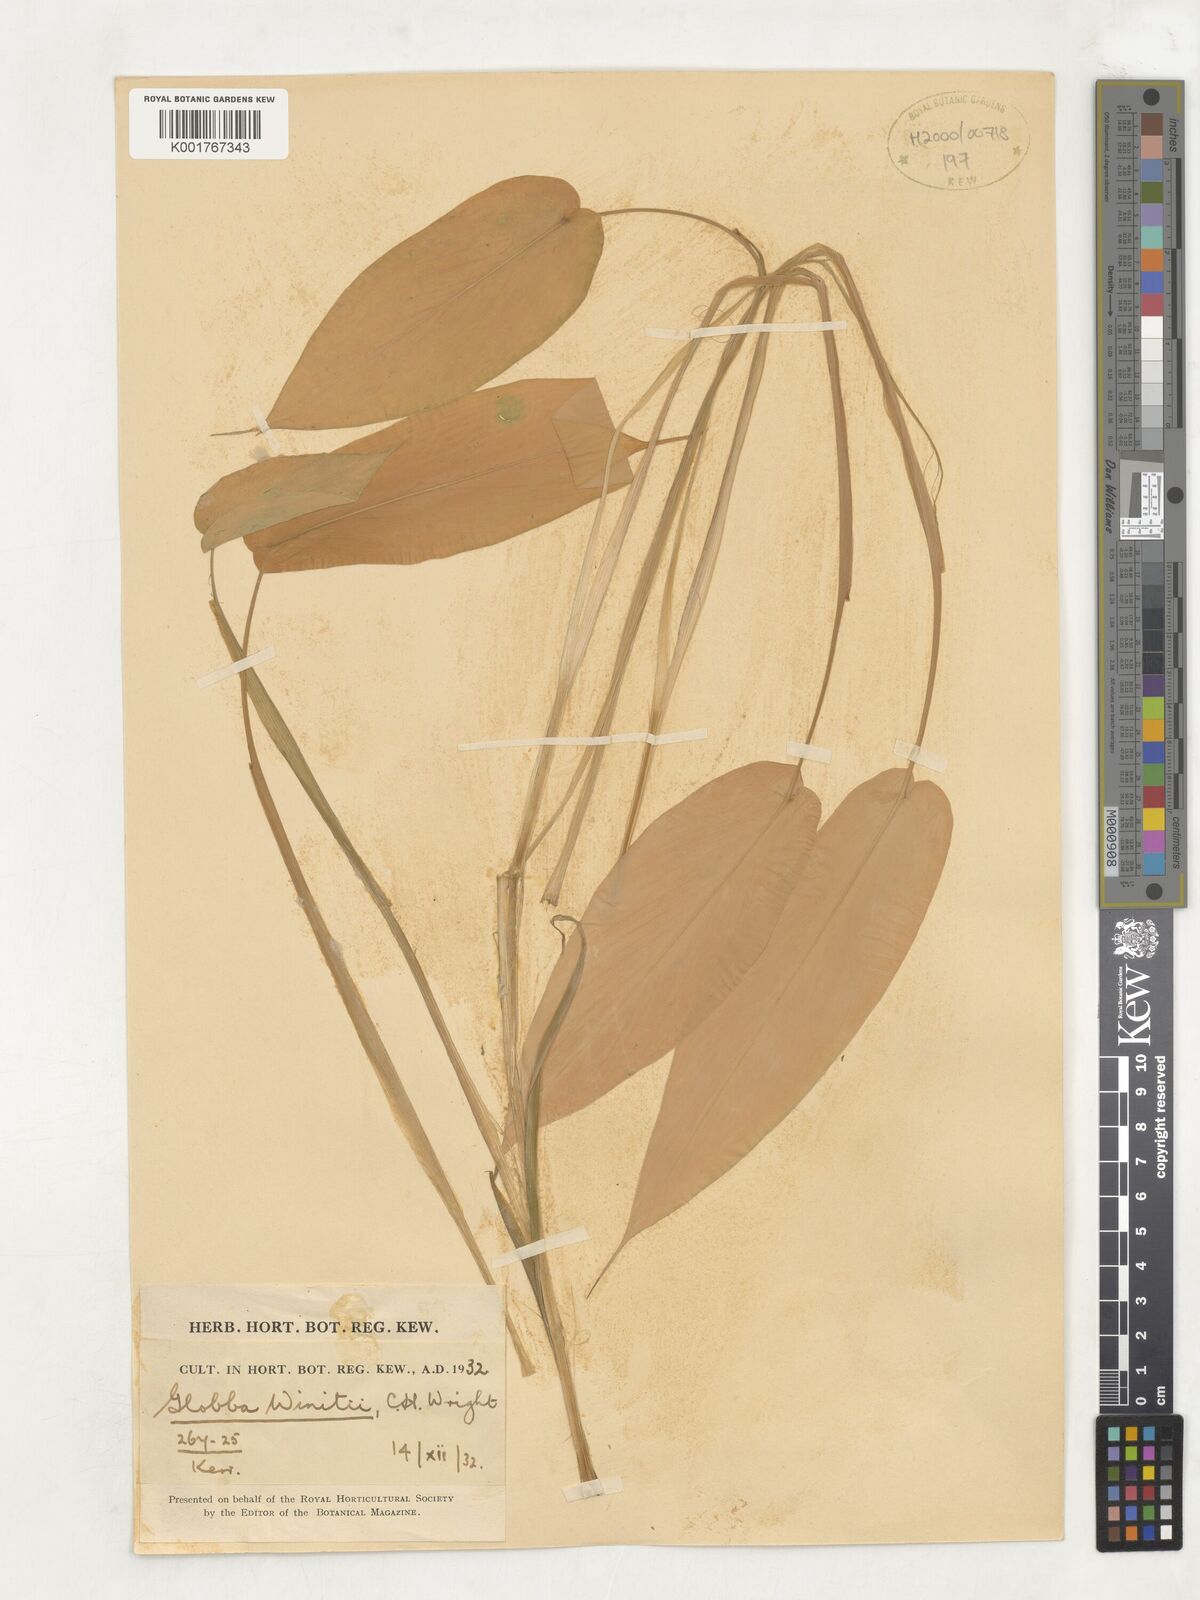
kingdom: Plantae
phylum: Tracheophyta
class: Liliopsida
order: Zingiberales
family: Zingiberaceae
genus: Globba
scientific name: Globba winitii
